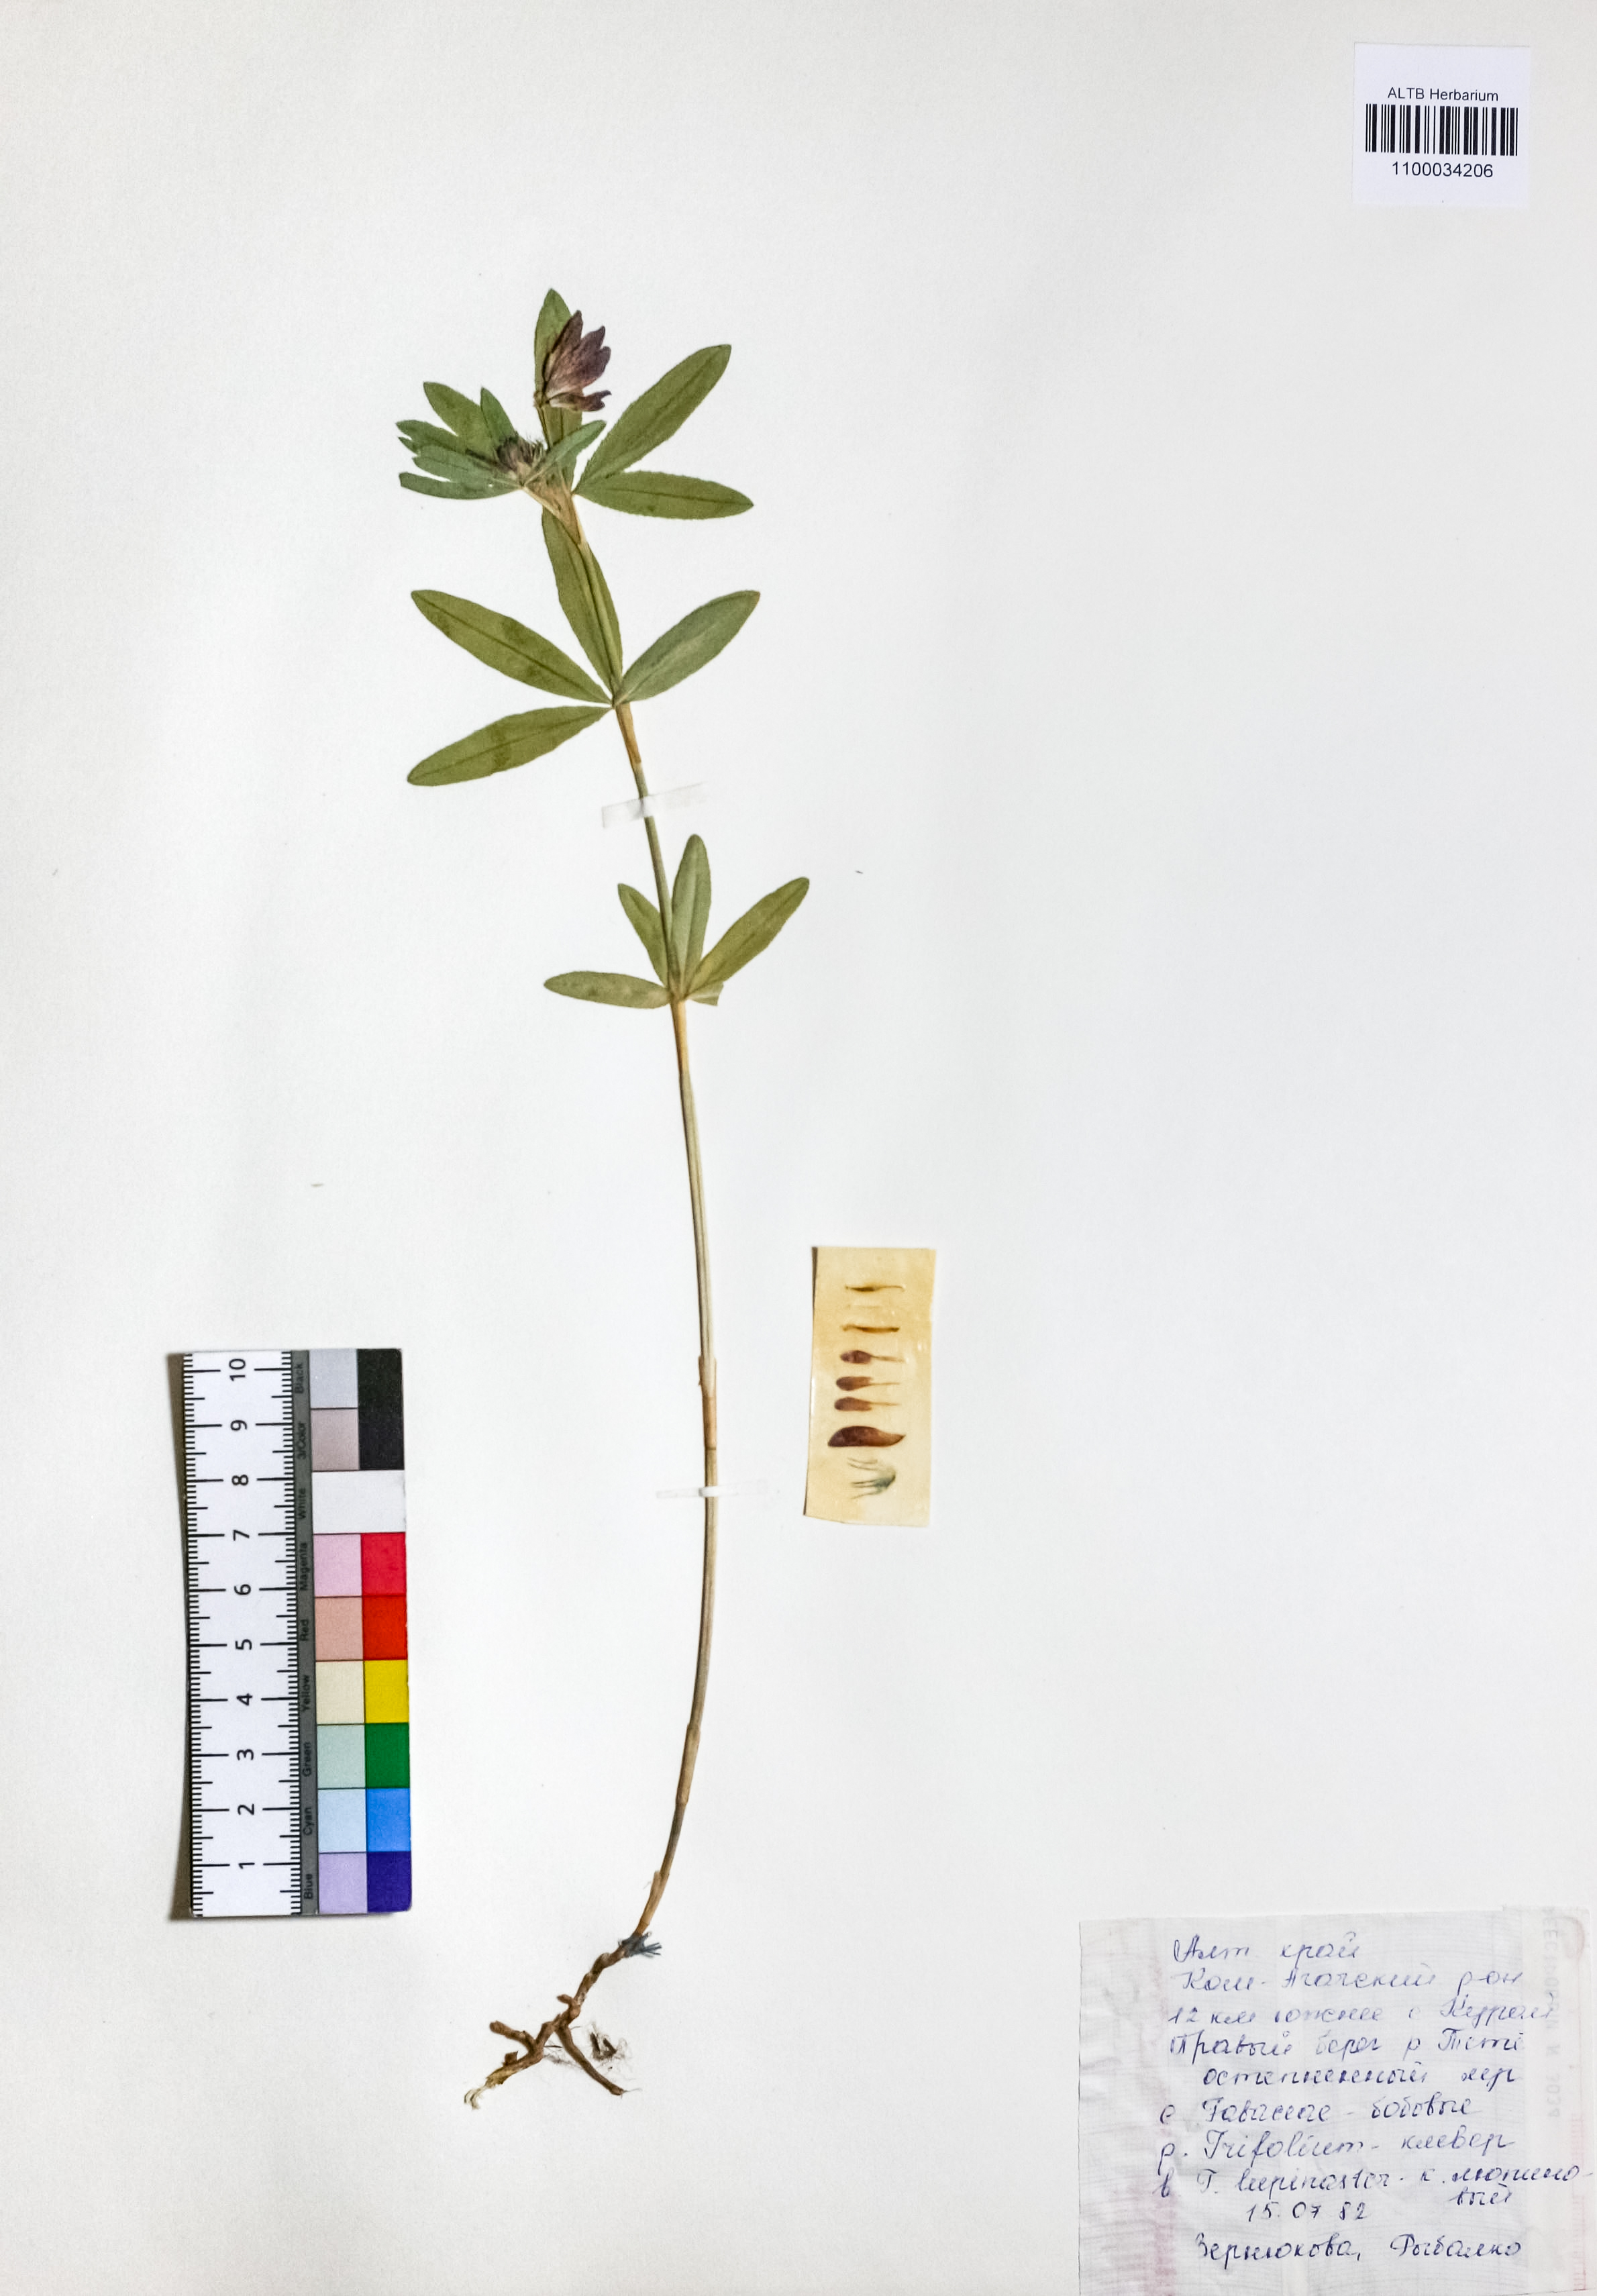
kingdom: Plantae
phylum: Tracheophyta
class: Magnoliopsida
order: Fabales
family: Fabaceae
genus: Trifolium
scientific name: Trifolium lupinaster
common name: Lupine clover
